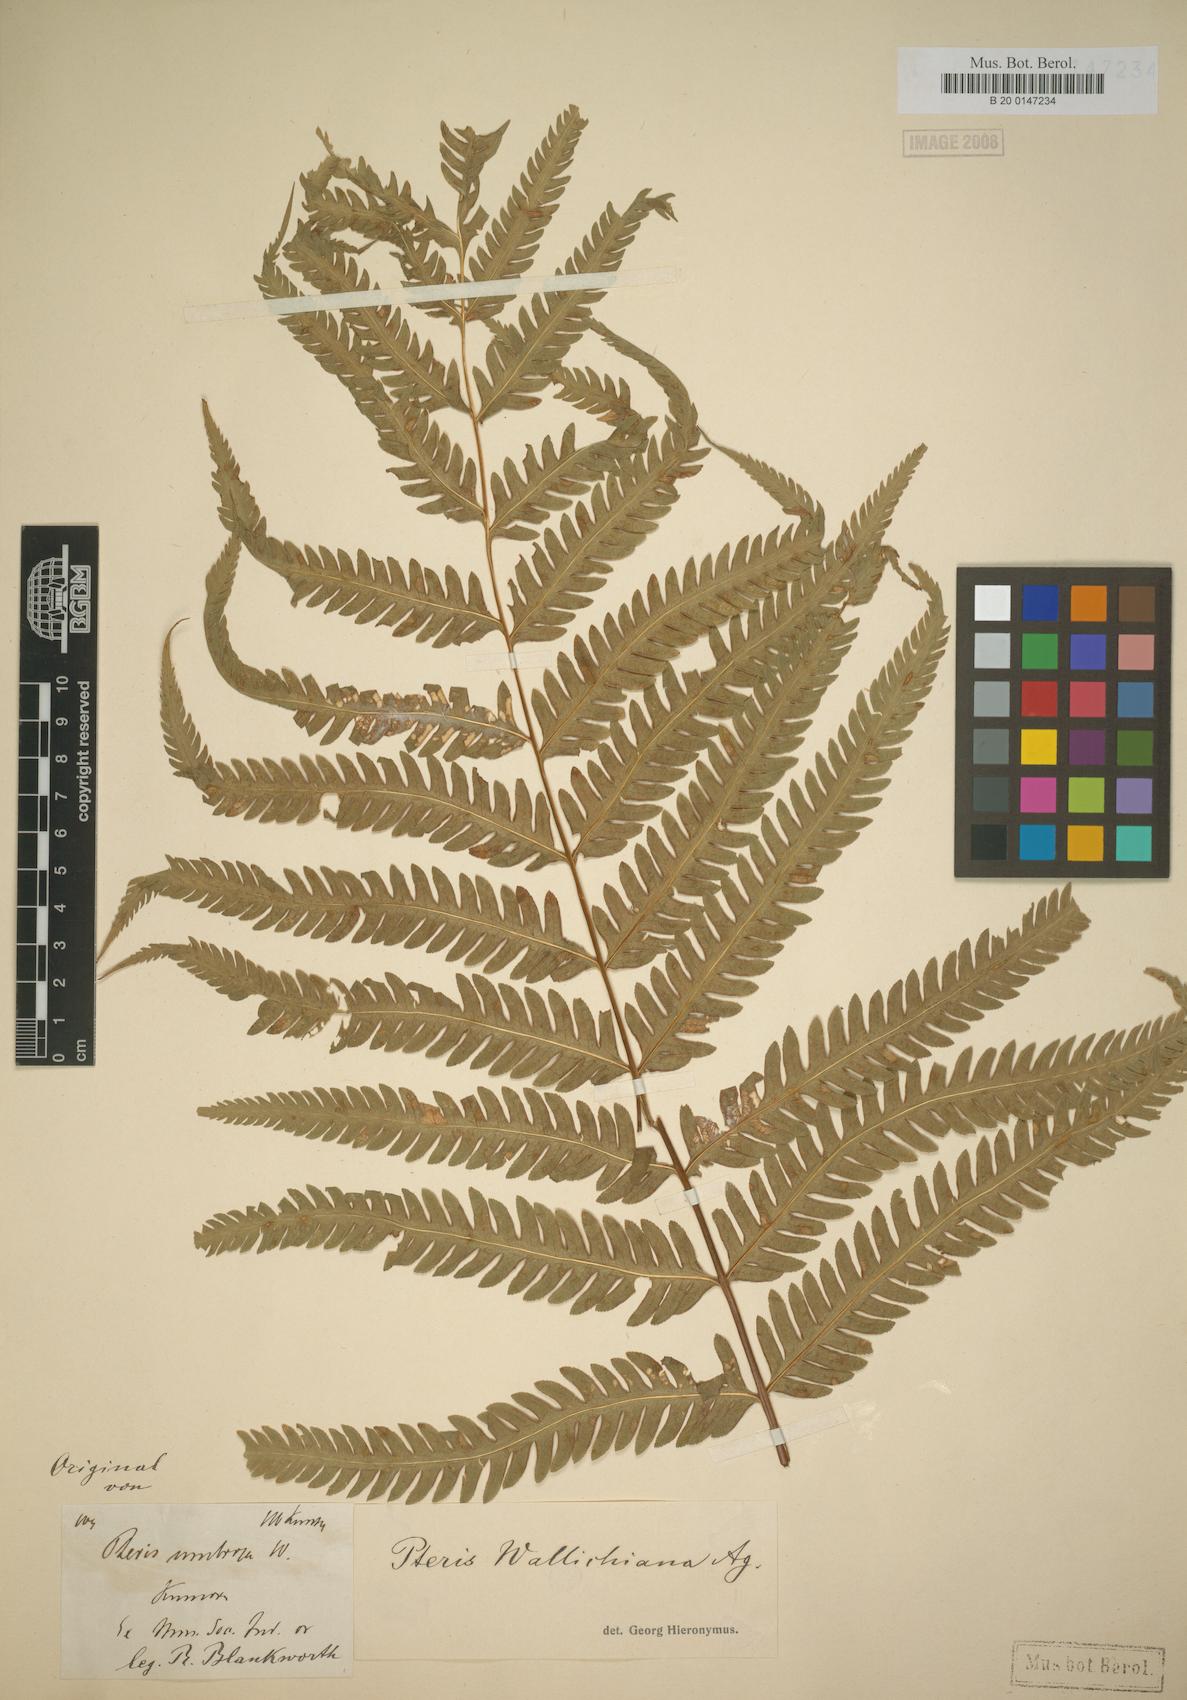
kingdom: Plantae
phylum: Tracheophyta
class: Polypodiopsida
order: Polypodiales
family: Pteridaceae
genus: Pteris
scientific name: Pteris wallichiana
